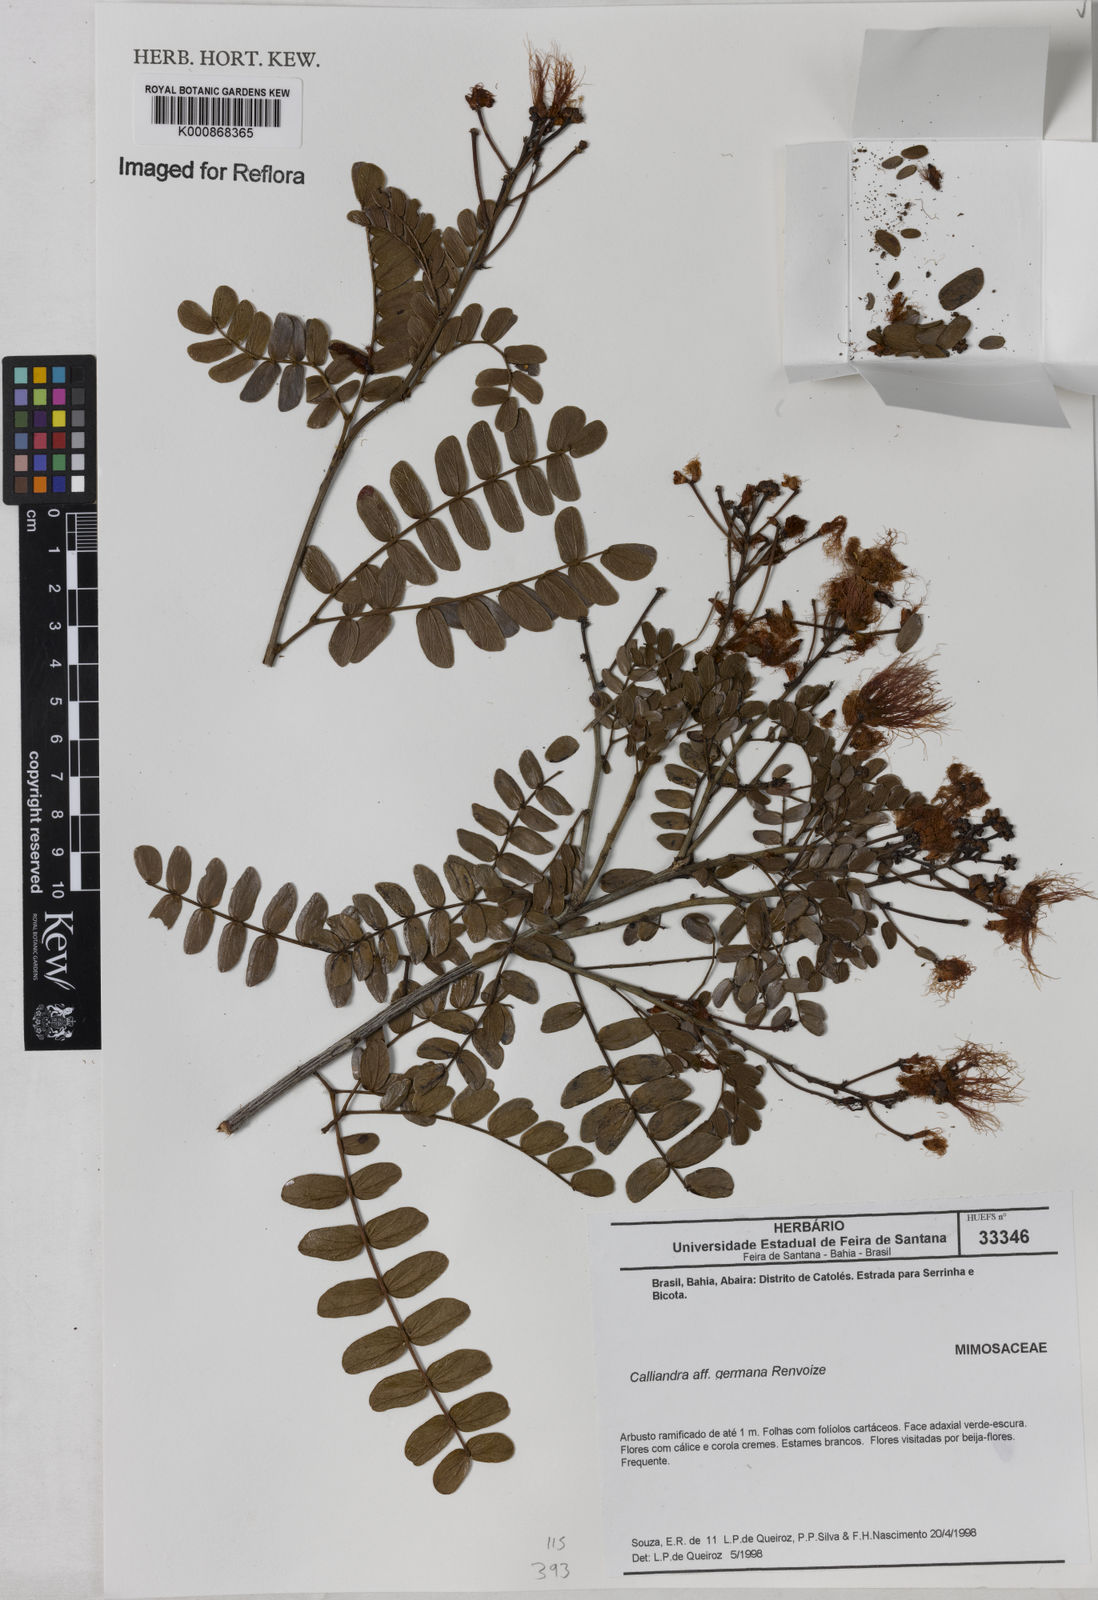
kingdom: Plantae
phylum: Tracheophyta
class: Magnoliopsida
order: Fabales
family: Fabaceae
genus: Calliandra
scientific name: Calliandra germana
